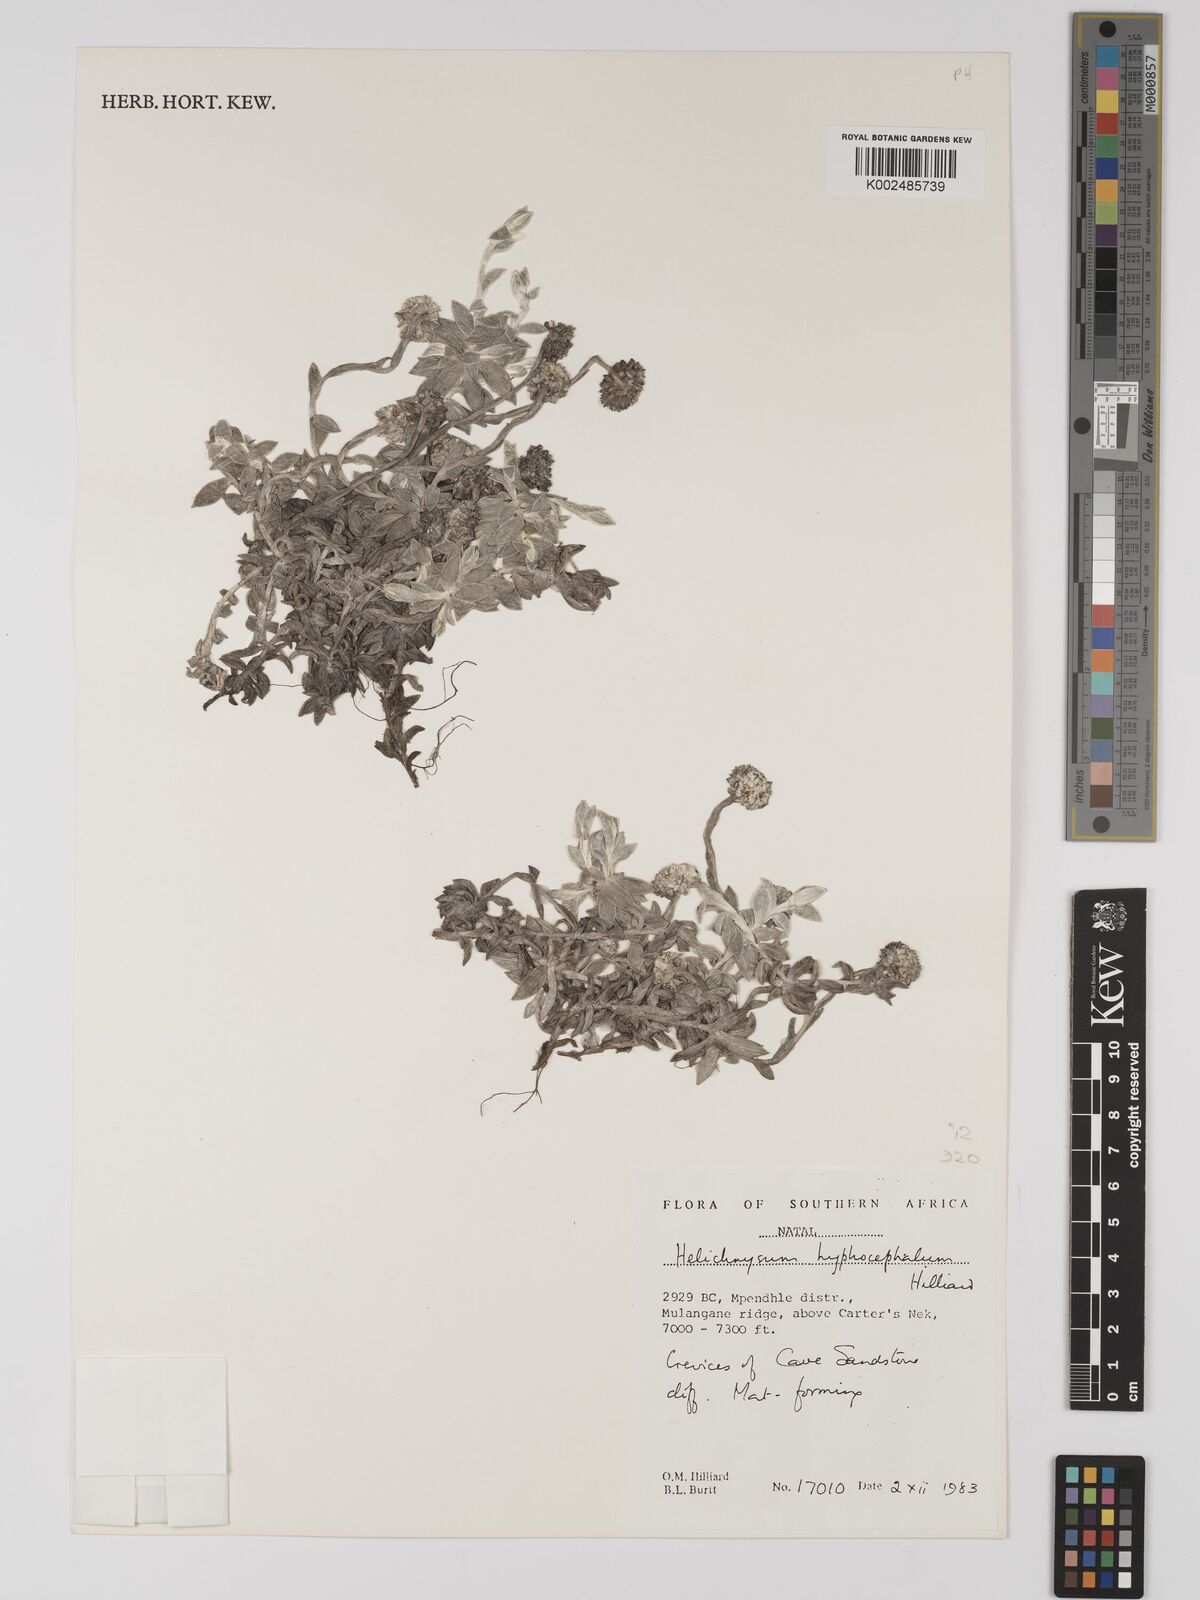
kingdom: Plantae
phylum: Tracheophyta
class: Magnoliopsida
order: Asterales
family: Asteraceae
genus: Helichrysum
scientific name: Helichrysum hyphocephalum
